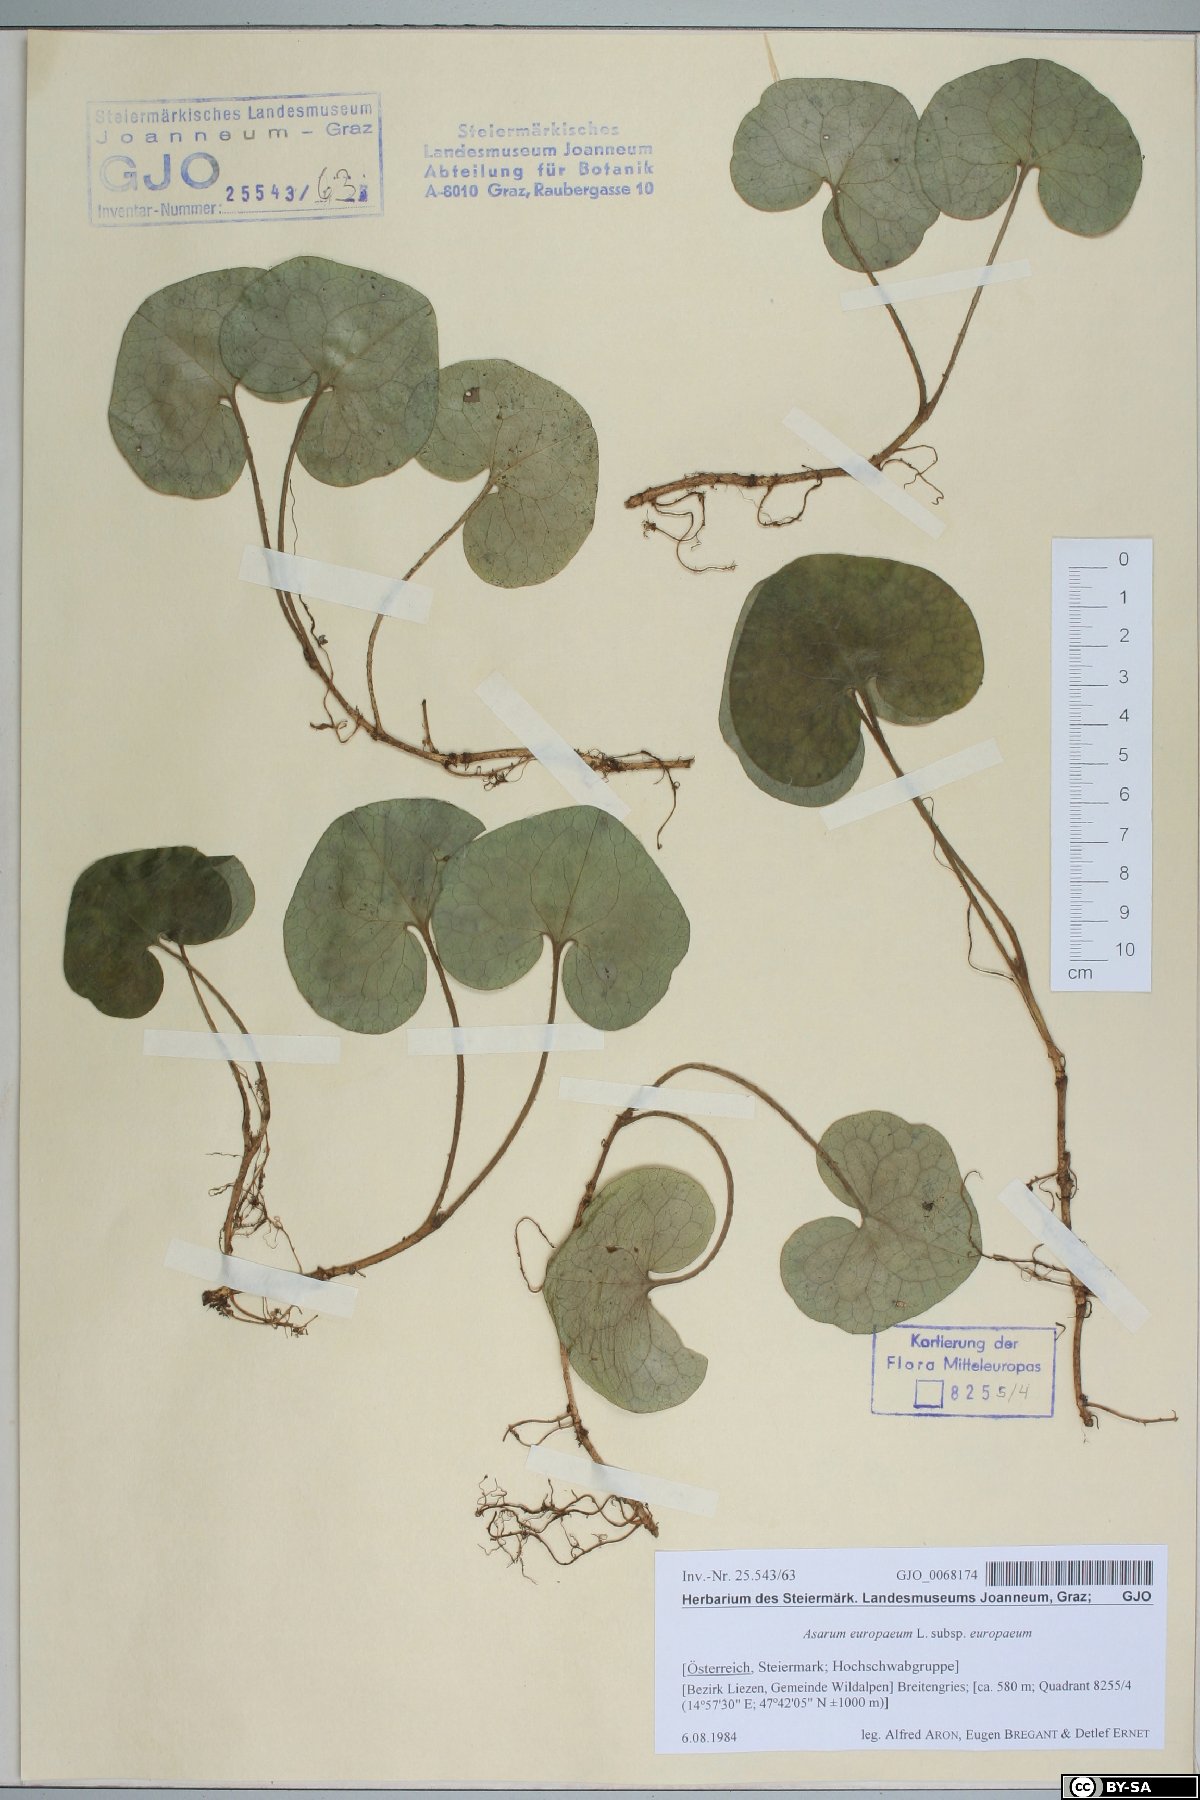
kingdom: Plantae
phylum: Tracheophyta
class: Magnoliopsida
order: Piperales
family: Aristolochiaceae
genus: Asarum
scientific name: Asarum europaeum
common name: Asarabacca
